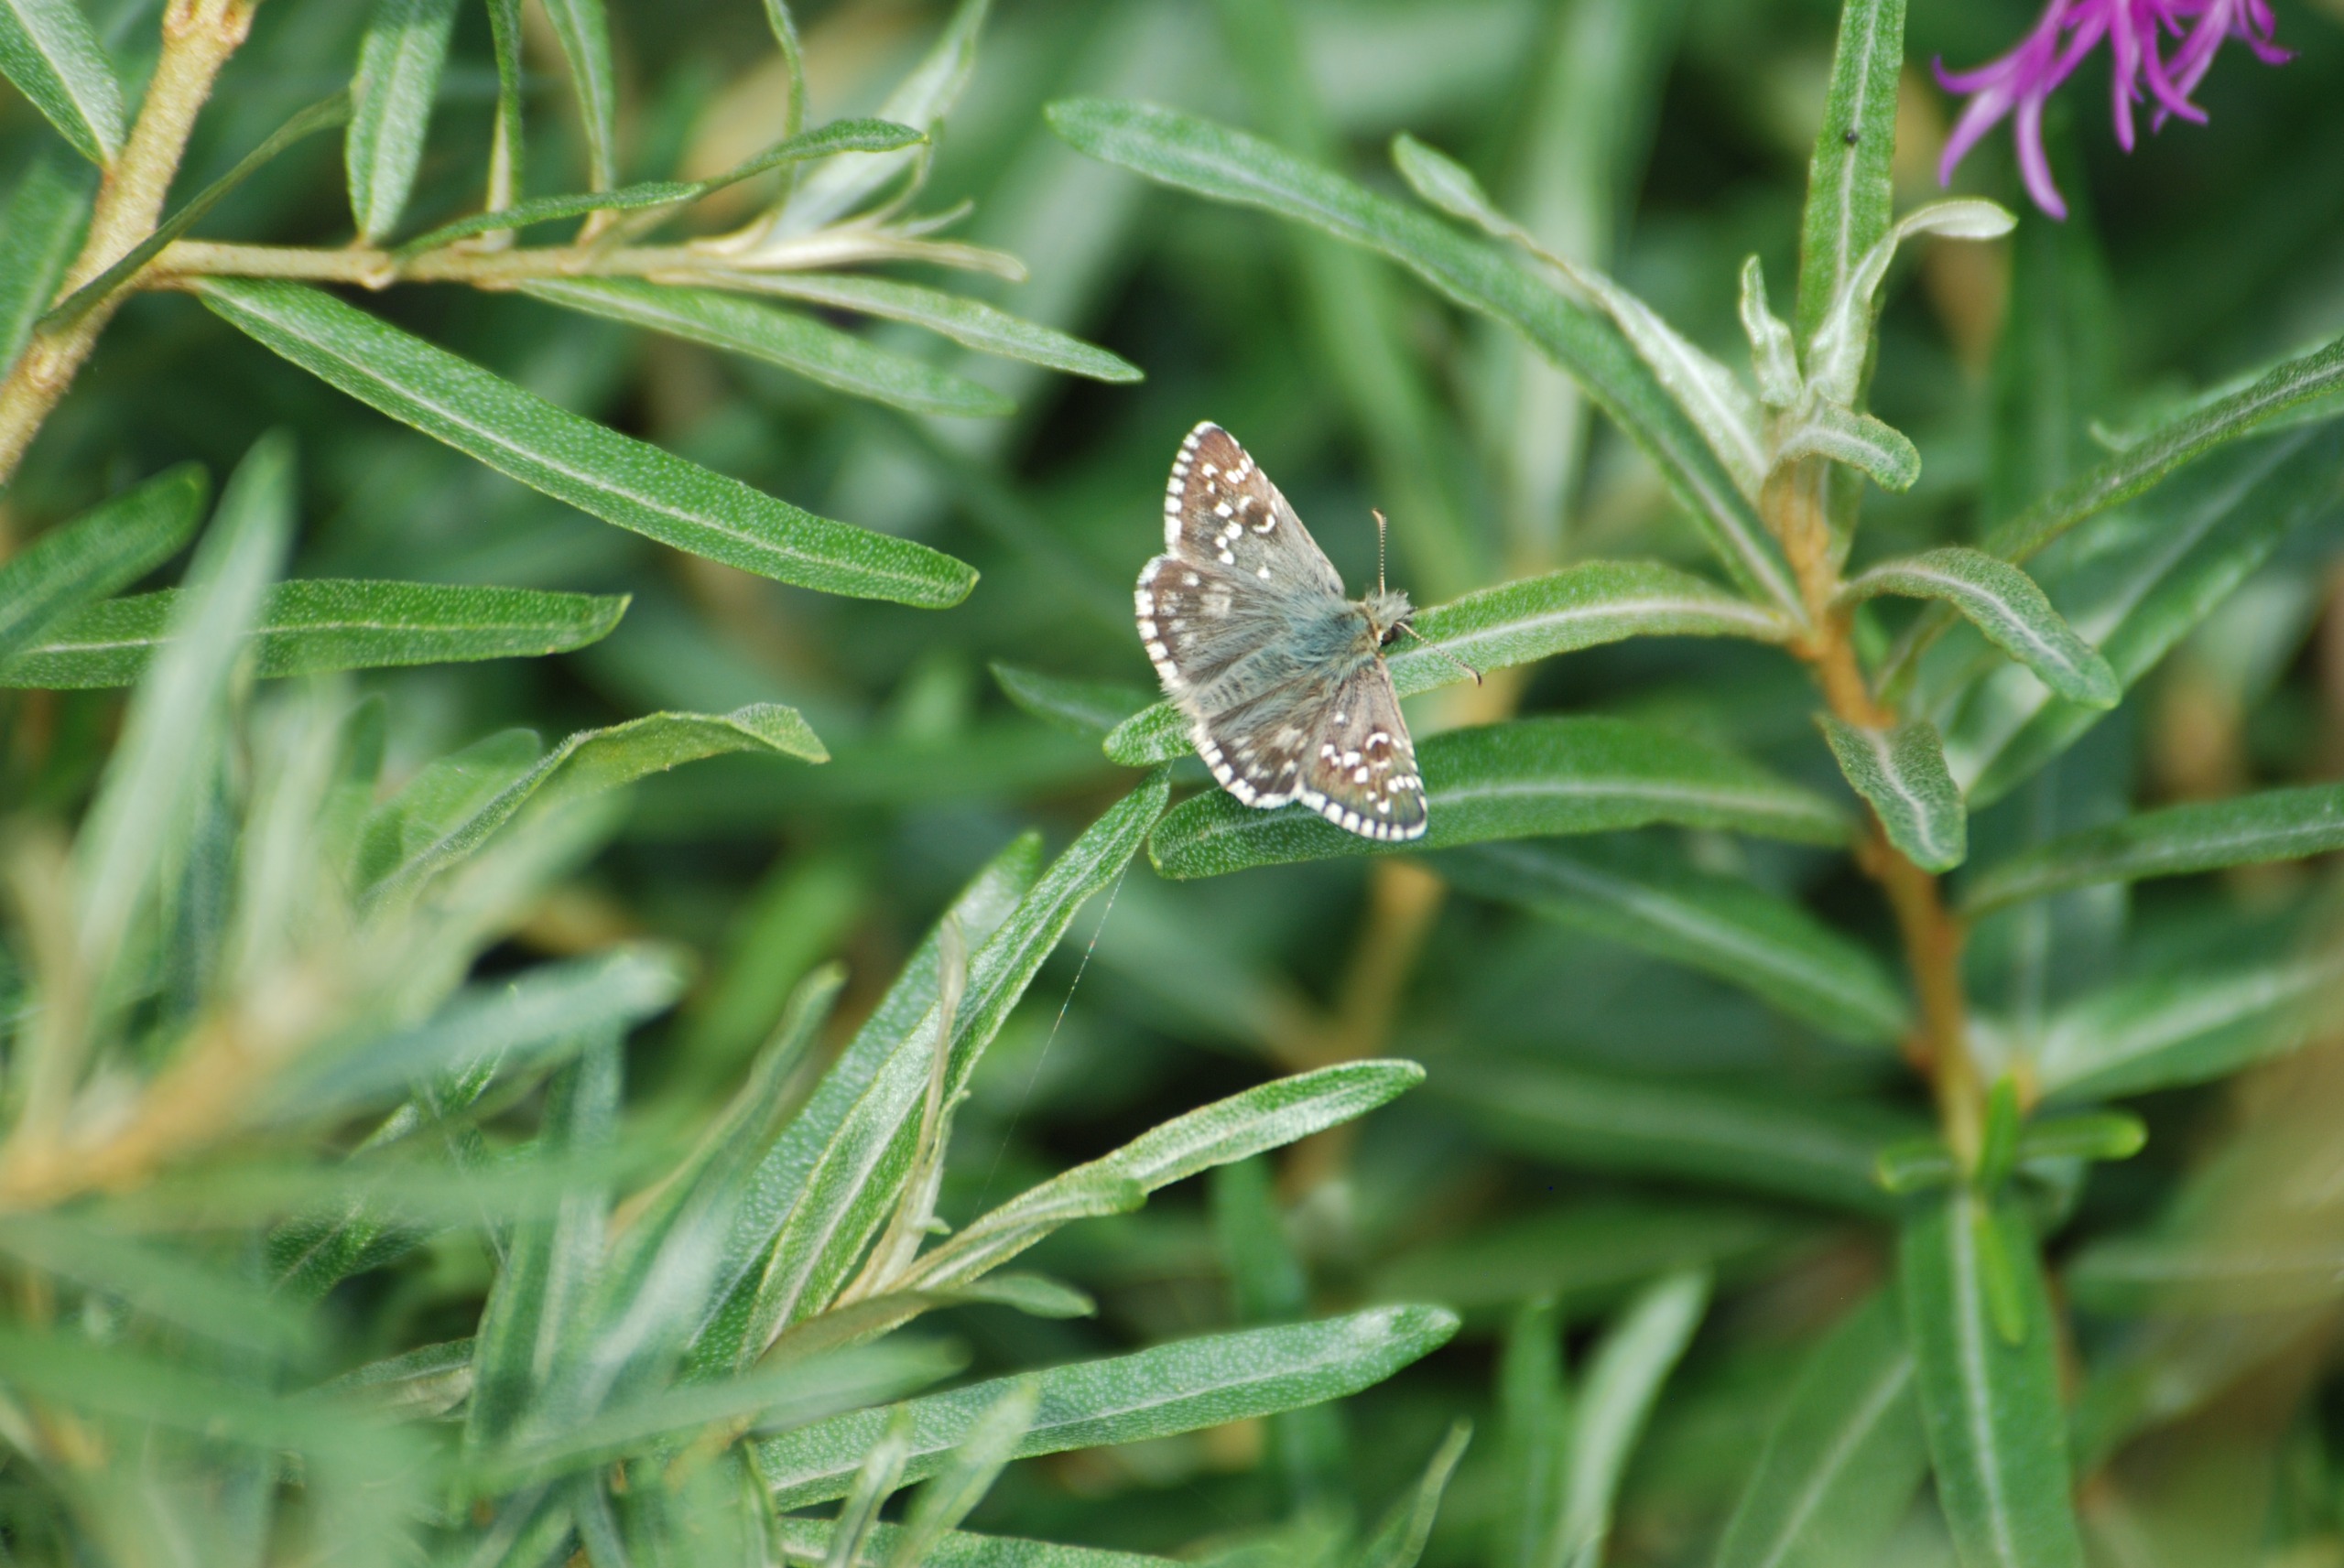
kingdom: Animalia
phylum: Arthropoda
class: Insecta
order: Lepidoptera
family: Hesperiidae
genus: Pyrgus
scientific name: Pyrgus armoricanus
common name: Fransk bredpande
